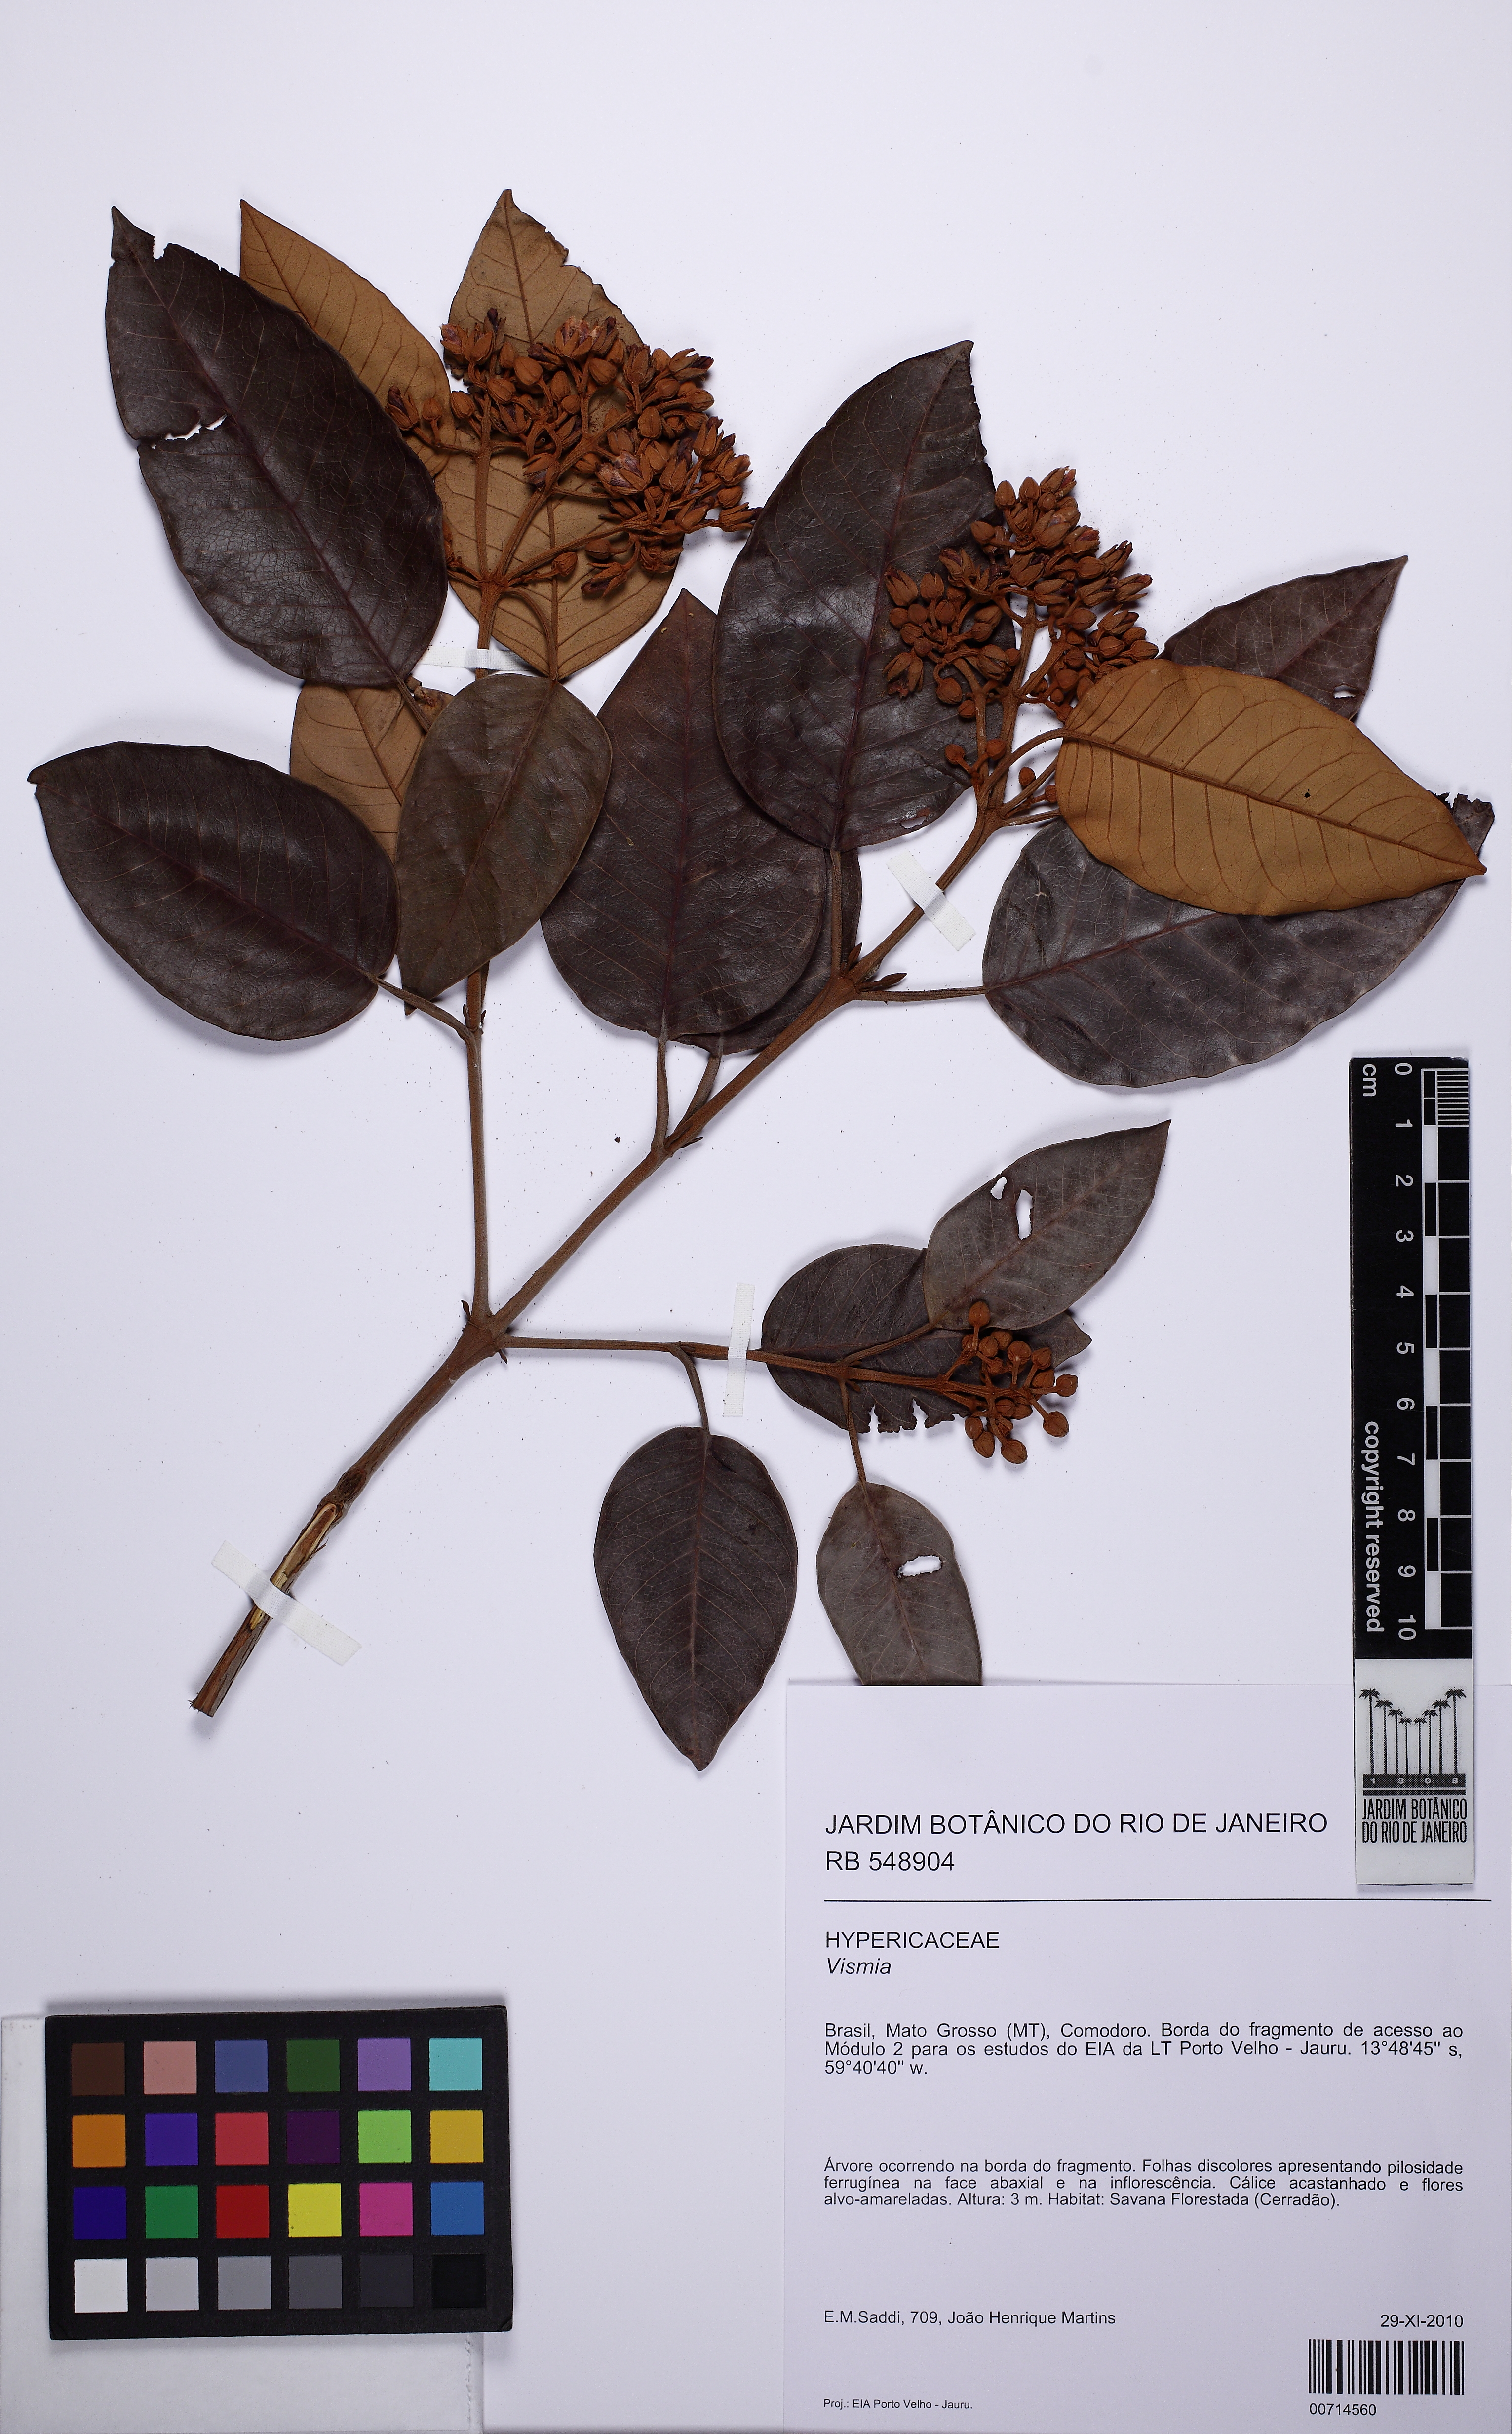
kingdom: Plantae
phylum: Tracheophyta
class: Magnoliopsida
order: Malpighiales
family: Hypericaceae
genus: Vismia
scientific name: Vismia ferruginea
